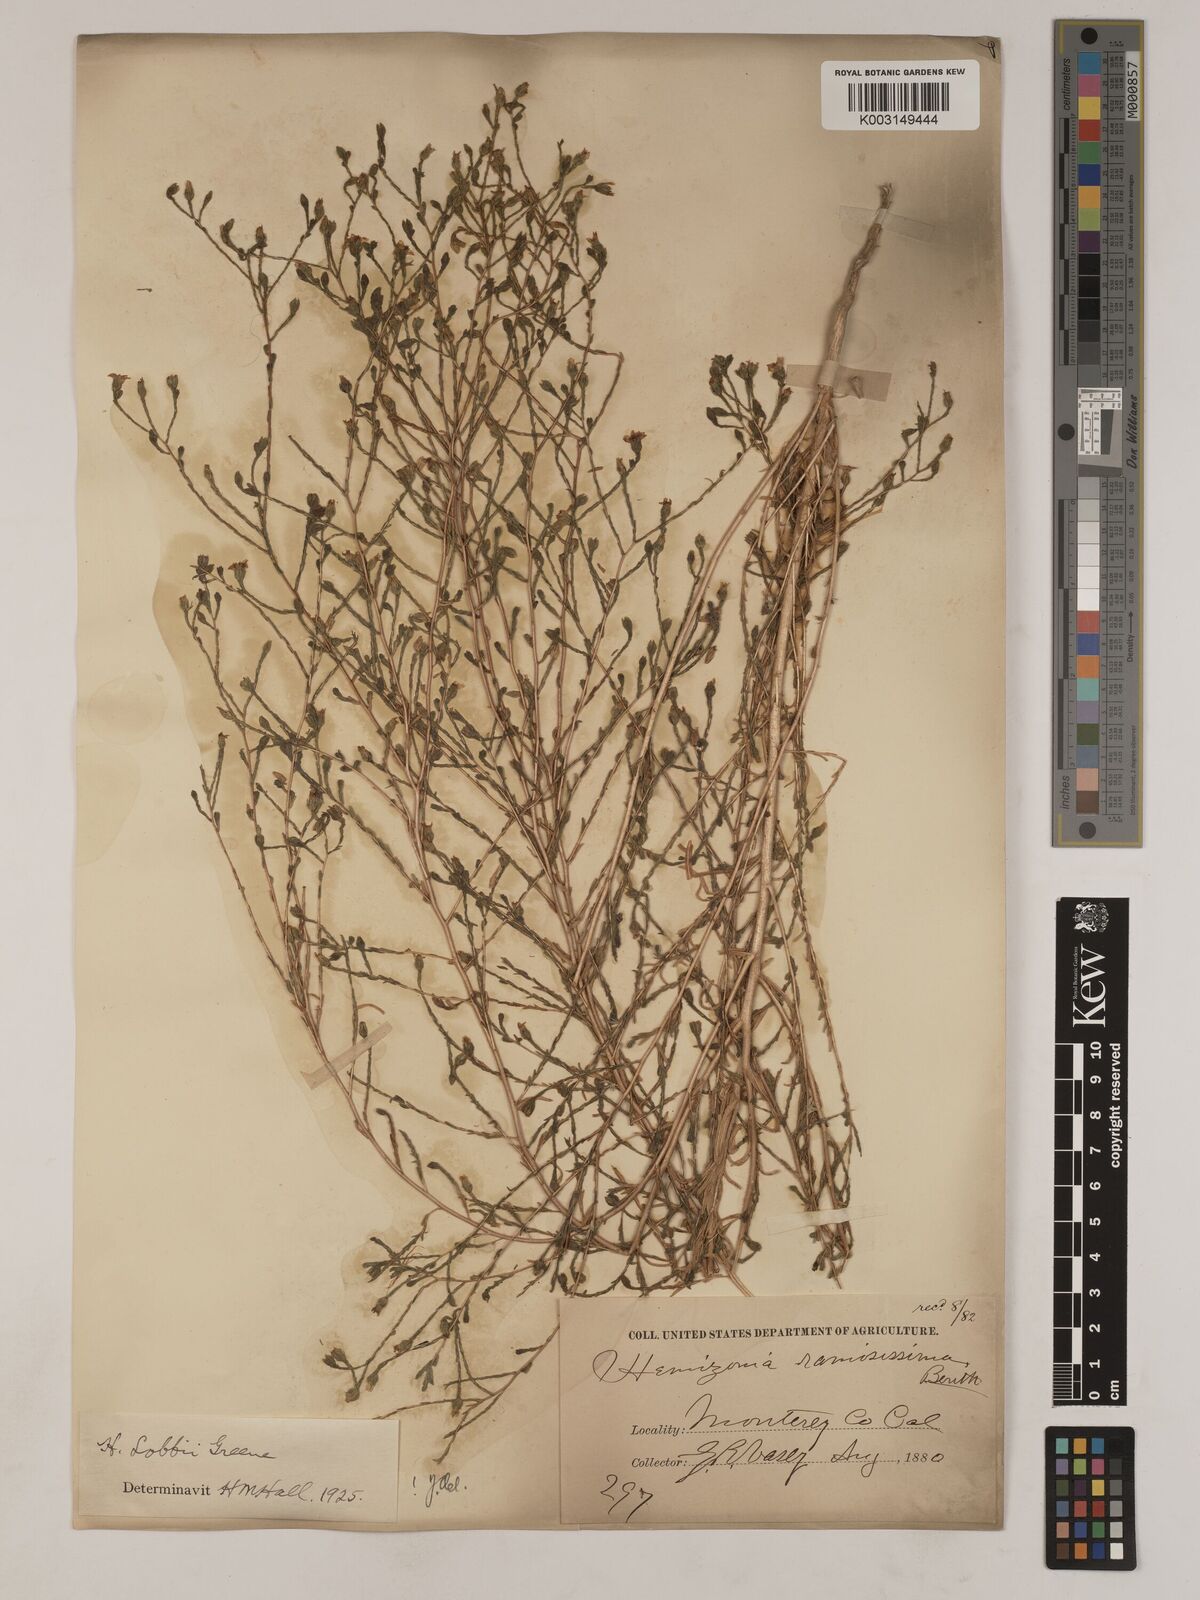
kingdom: Plantae
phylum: Tracheophyta
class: Magnoliopsida
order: Asterales
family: Asteraceae
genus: Deinandra
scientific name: Deinandra lobbii
